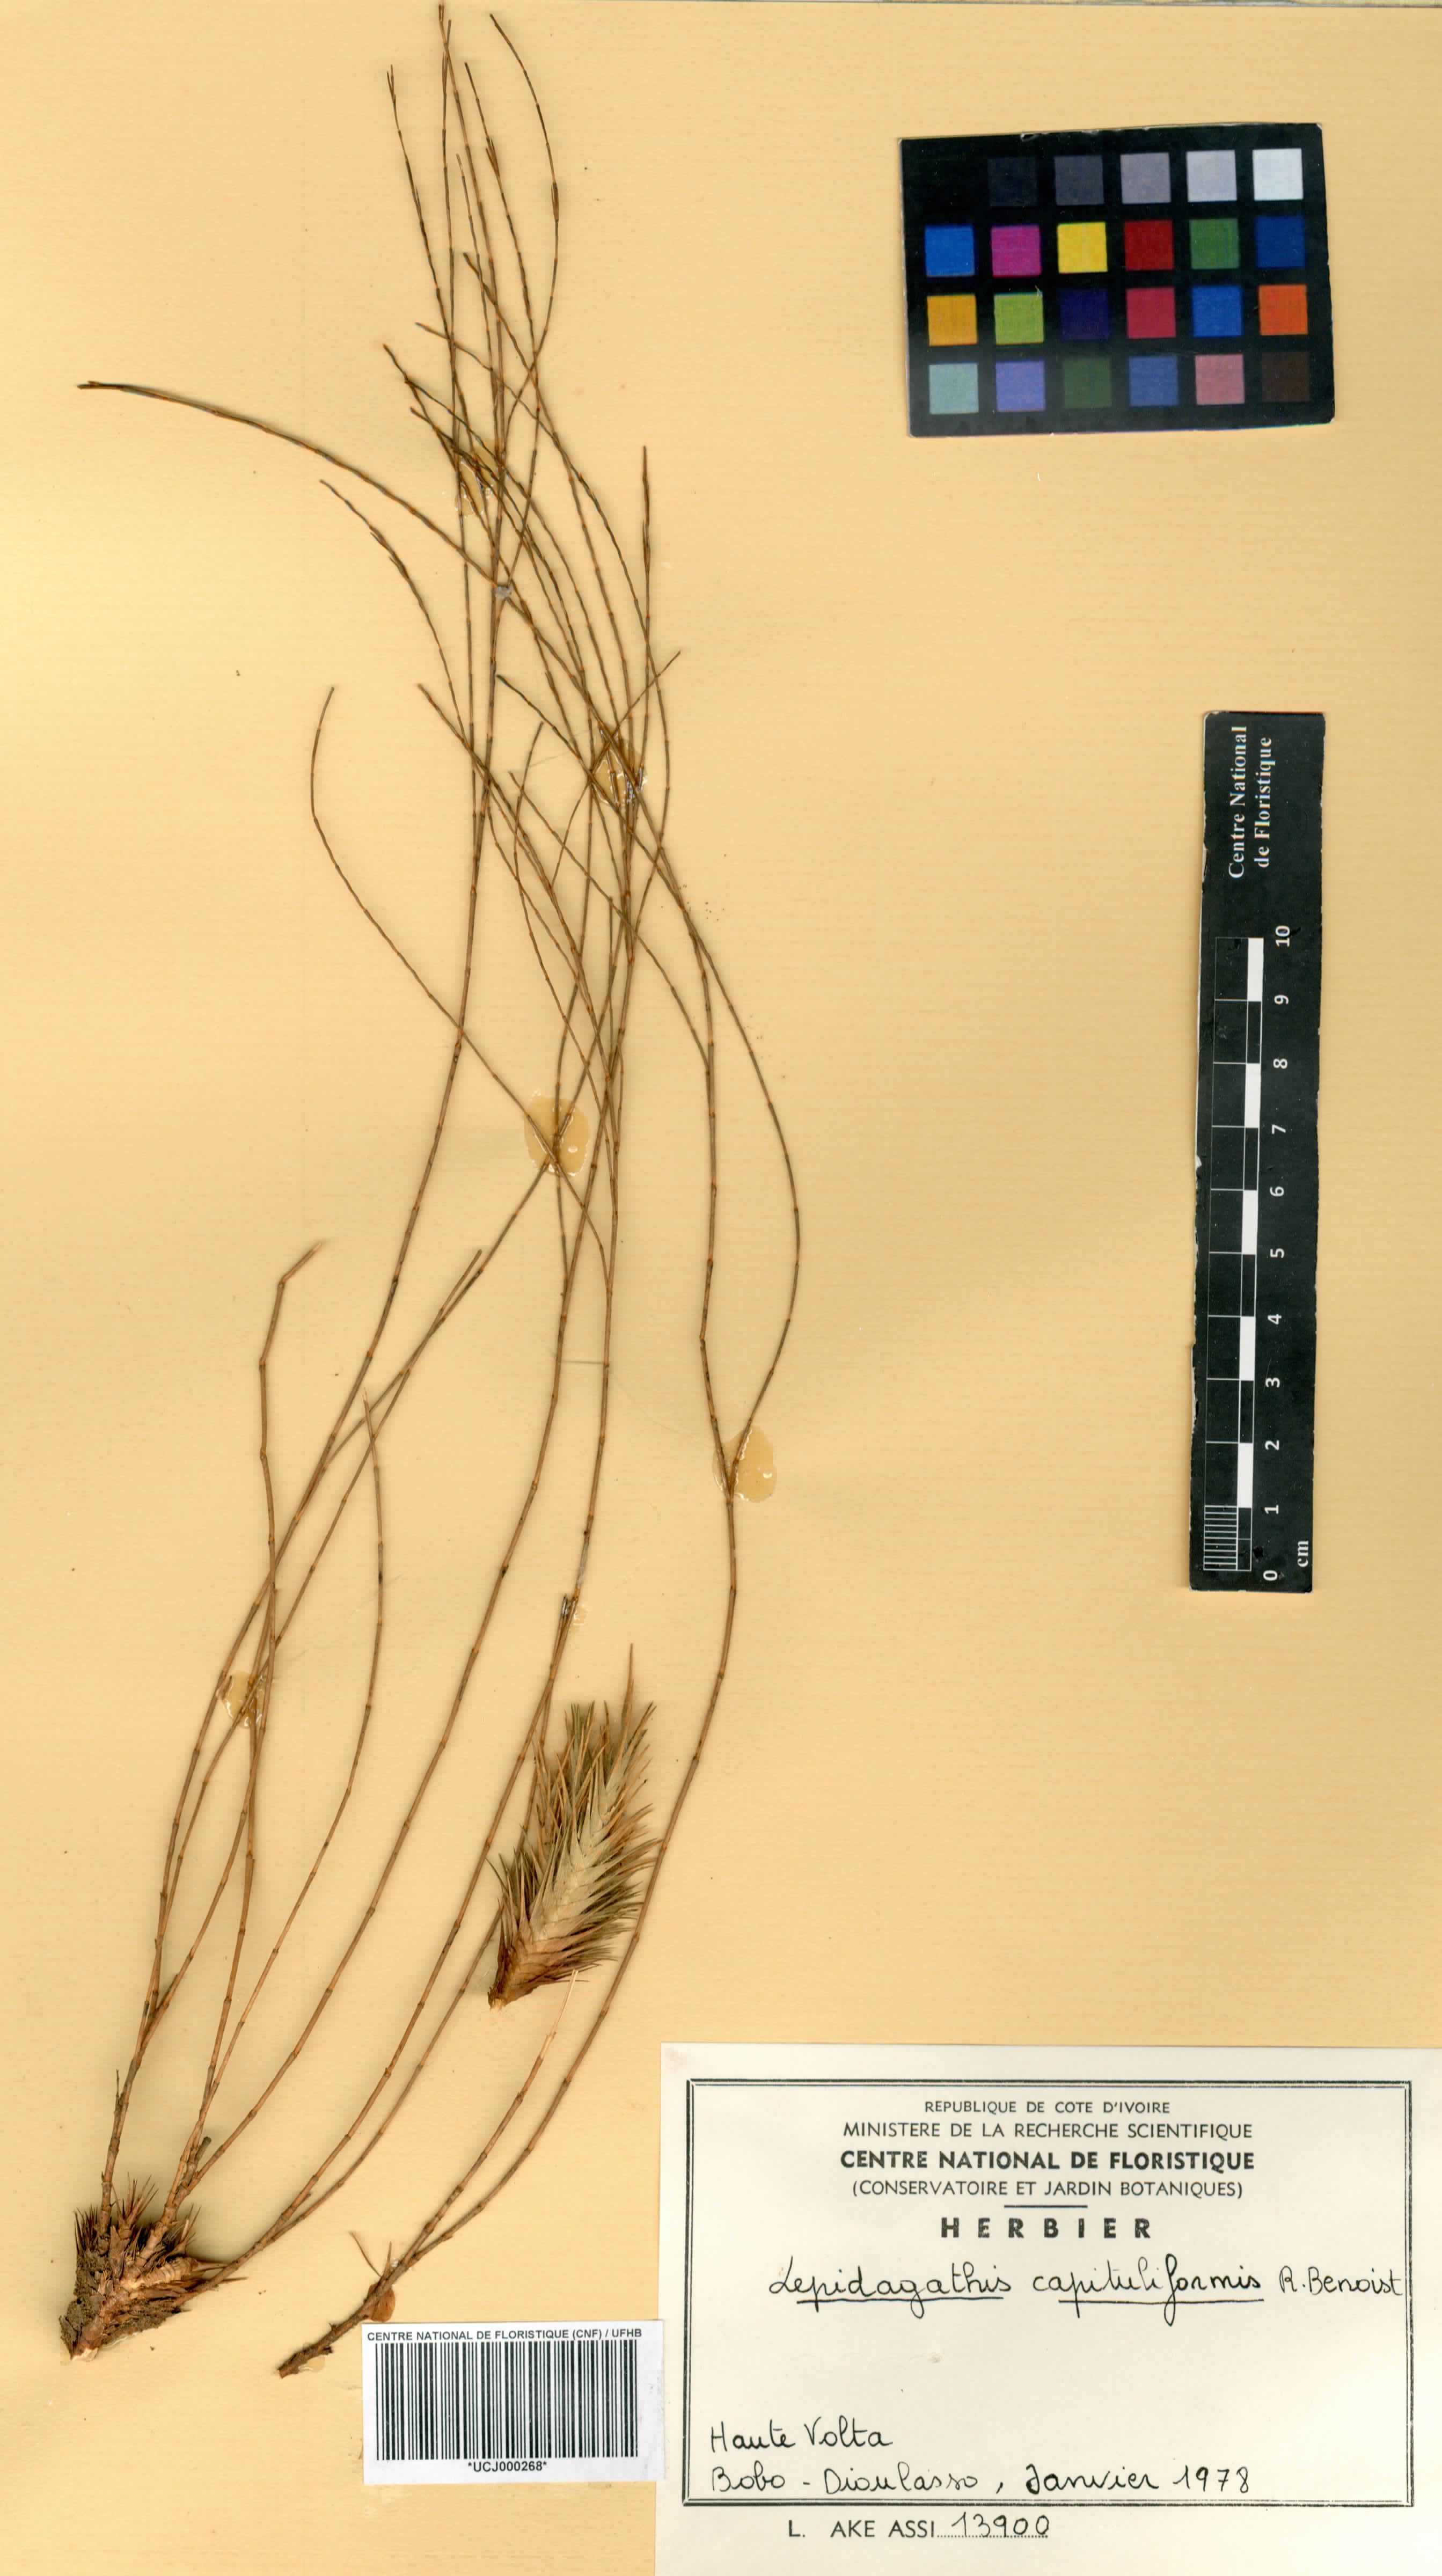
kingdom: Plantae
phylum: Tracheophyta
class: Magnoliopsida
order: Lamiales
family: Acanthaceae
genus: Lepidagathis
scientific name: Lepidagathis capituliformis
